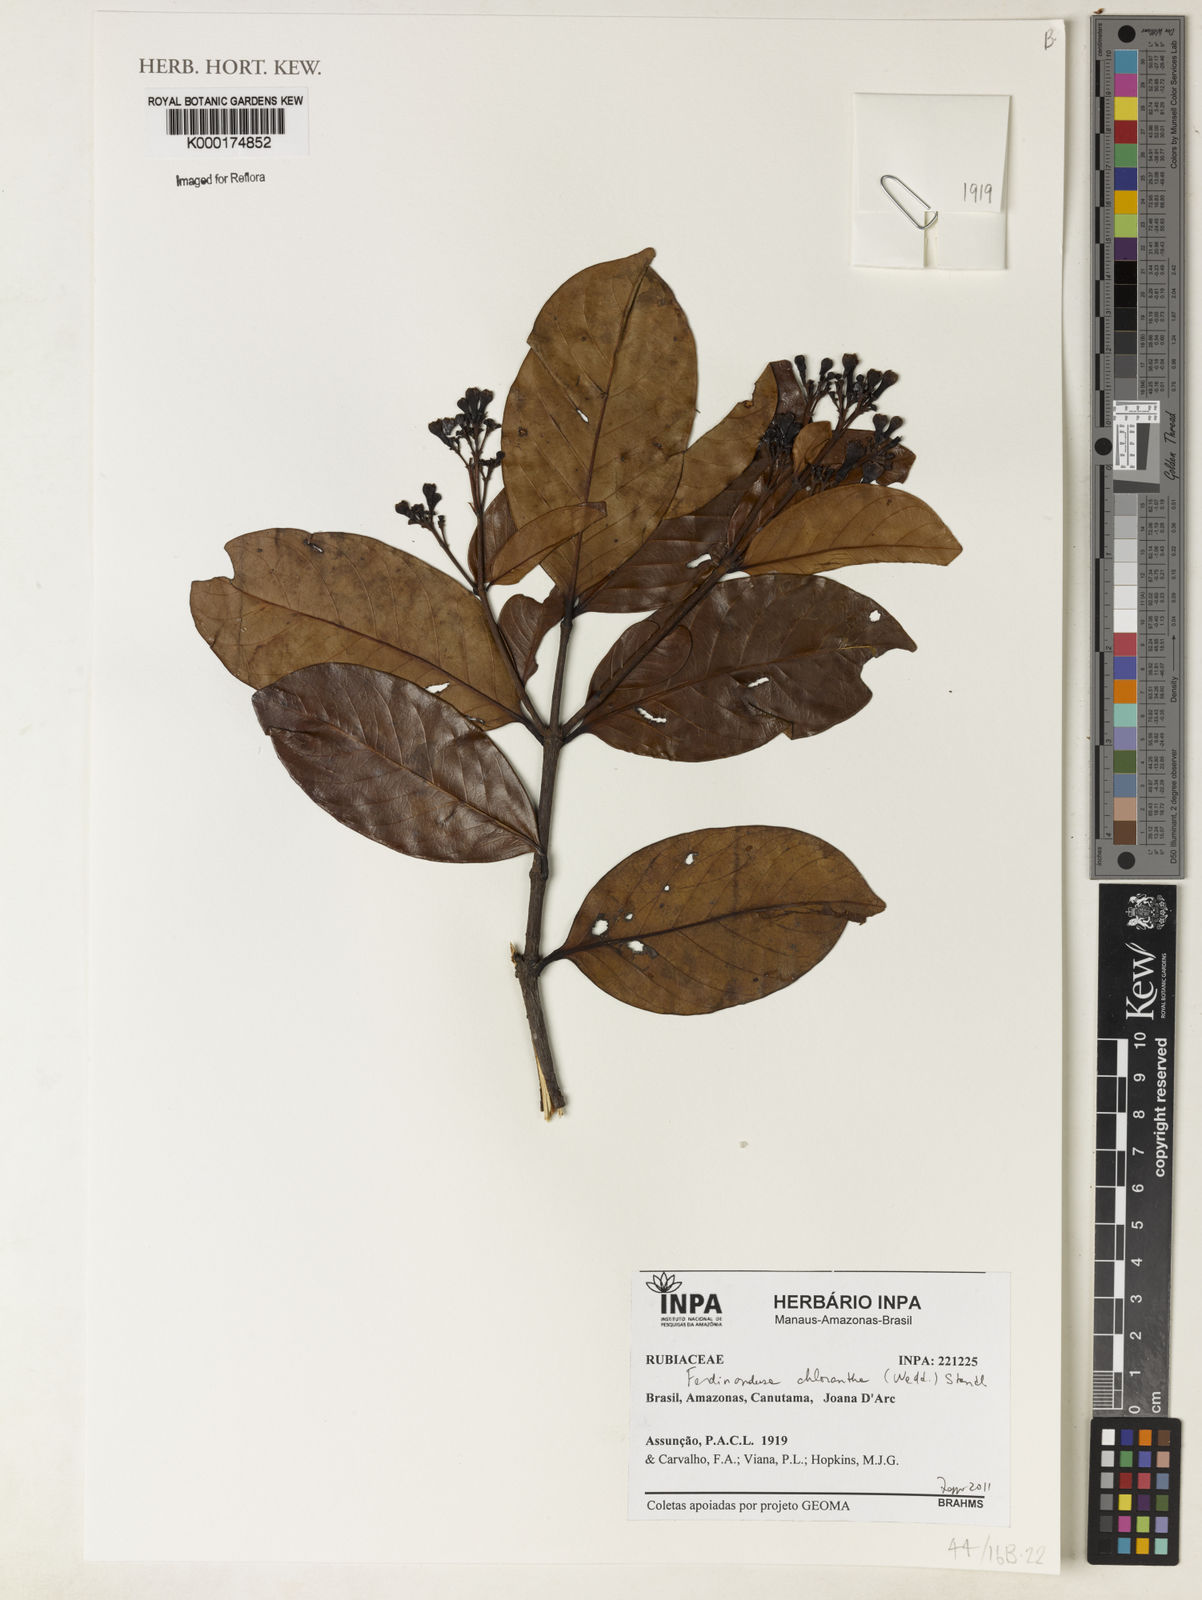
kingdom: Plantae
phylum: Tracheophyta
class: Magnoliopsida
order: Gentianales
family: Rubiaceae
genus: Ferdinandusa
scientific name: Ferdinandusa chlorantha
